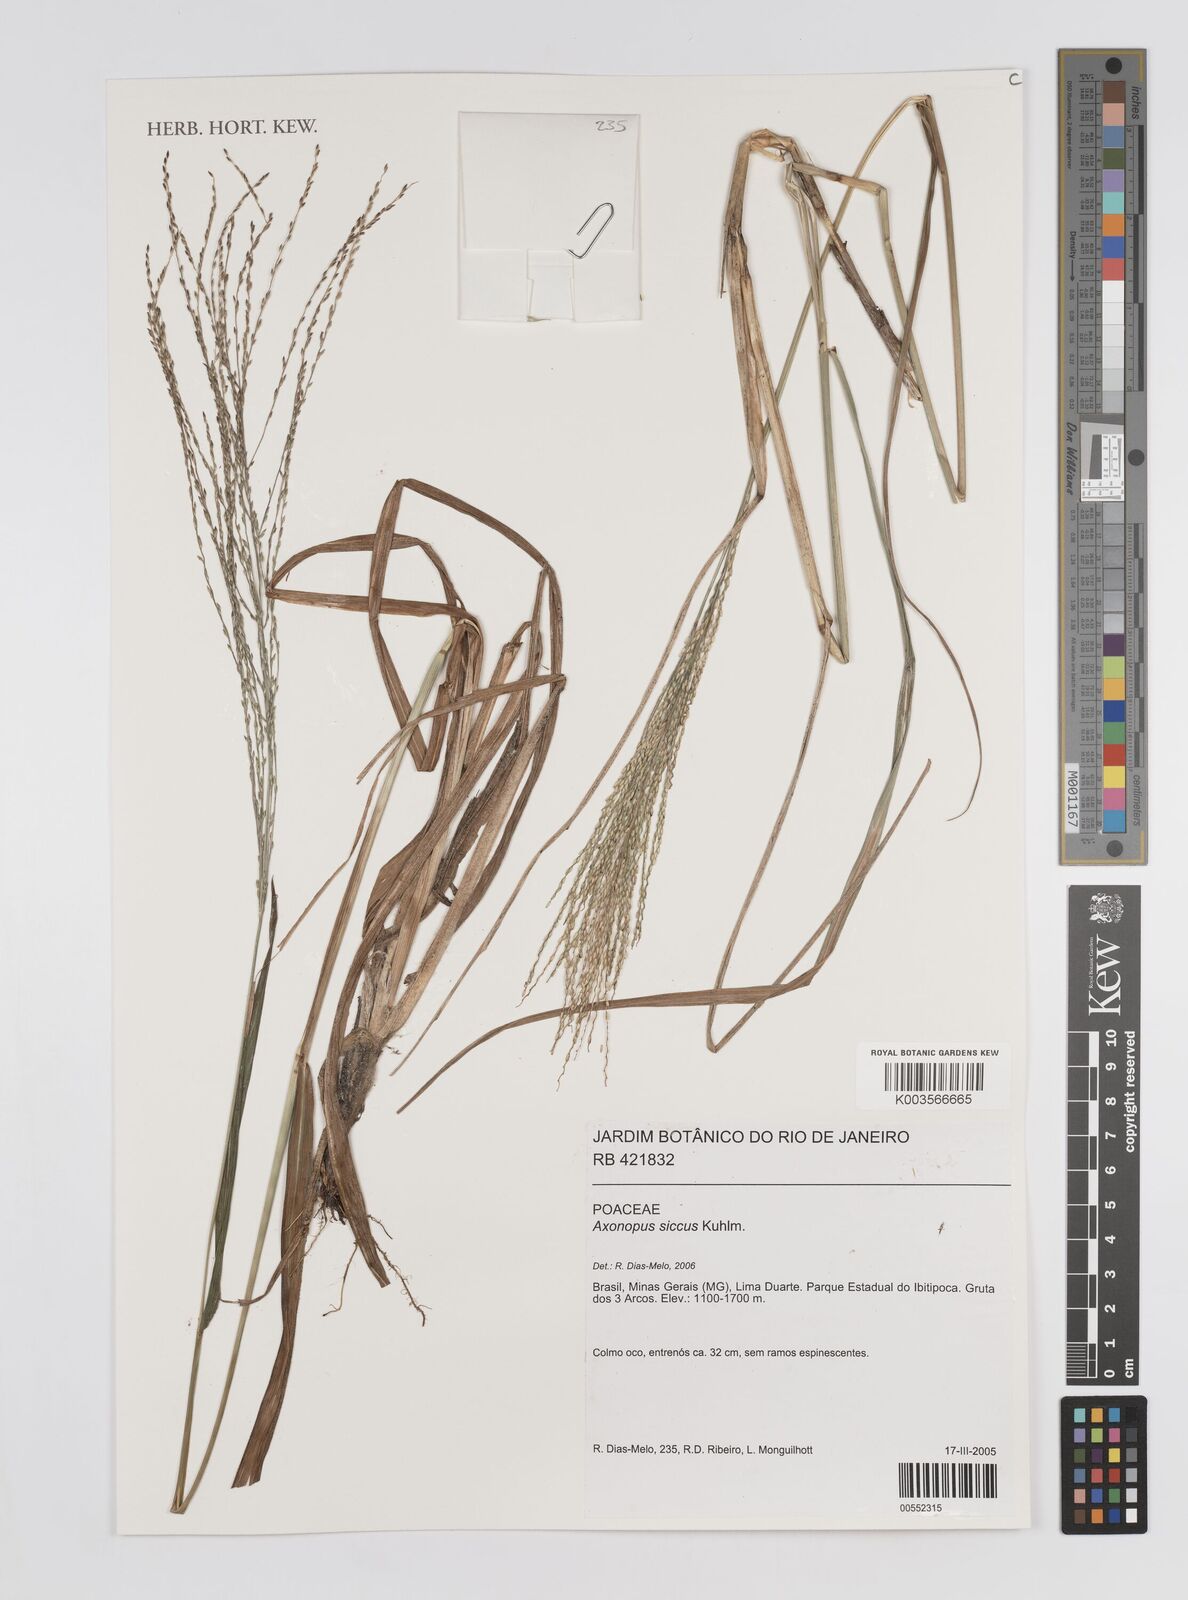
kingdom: Plantae
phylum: Tracheophyta
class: Liliopsida
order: Poales
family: Poaceae
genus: Axonopus
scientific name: Axonopus siccus
